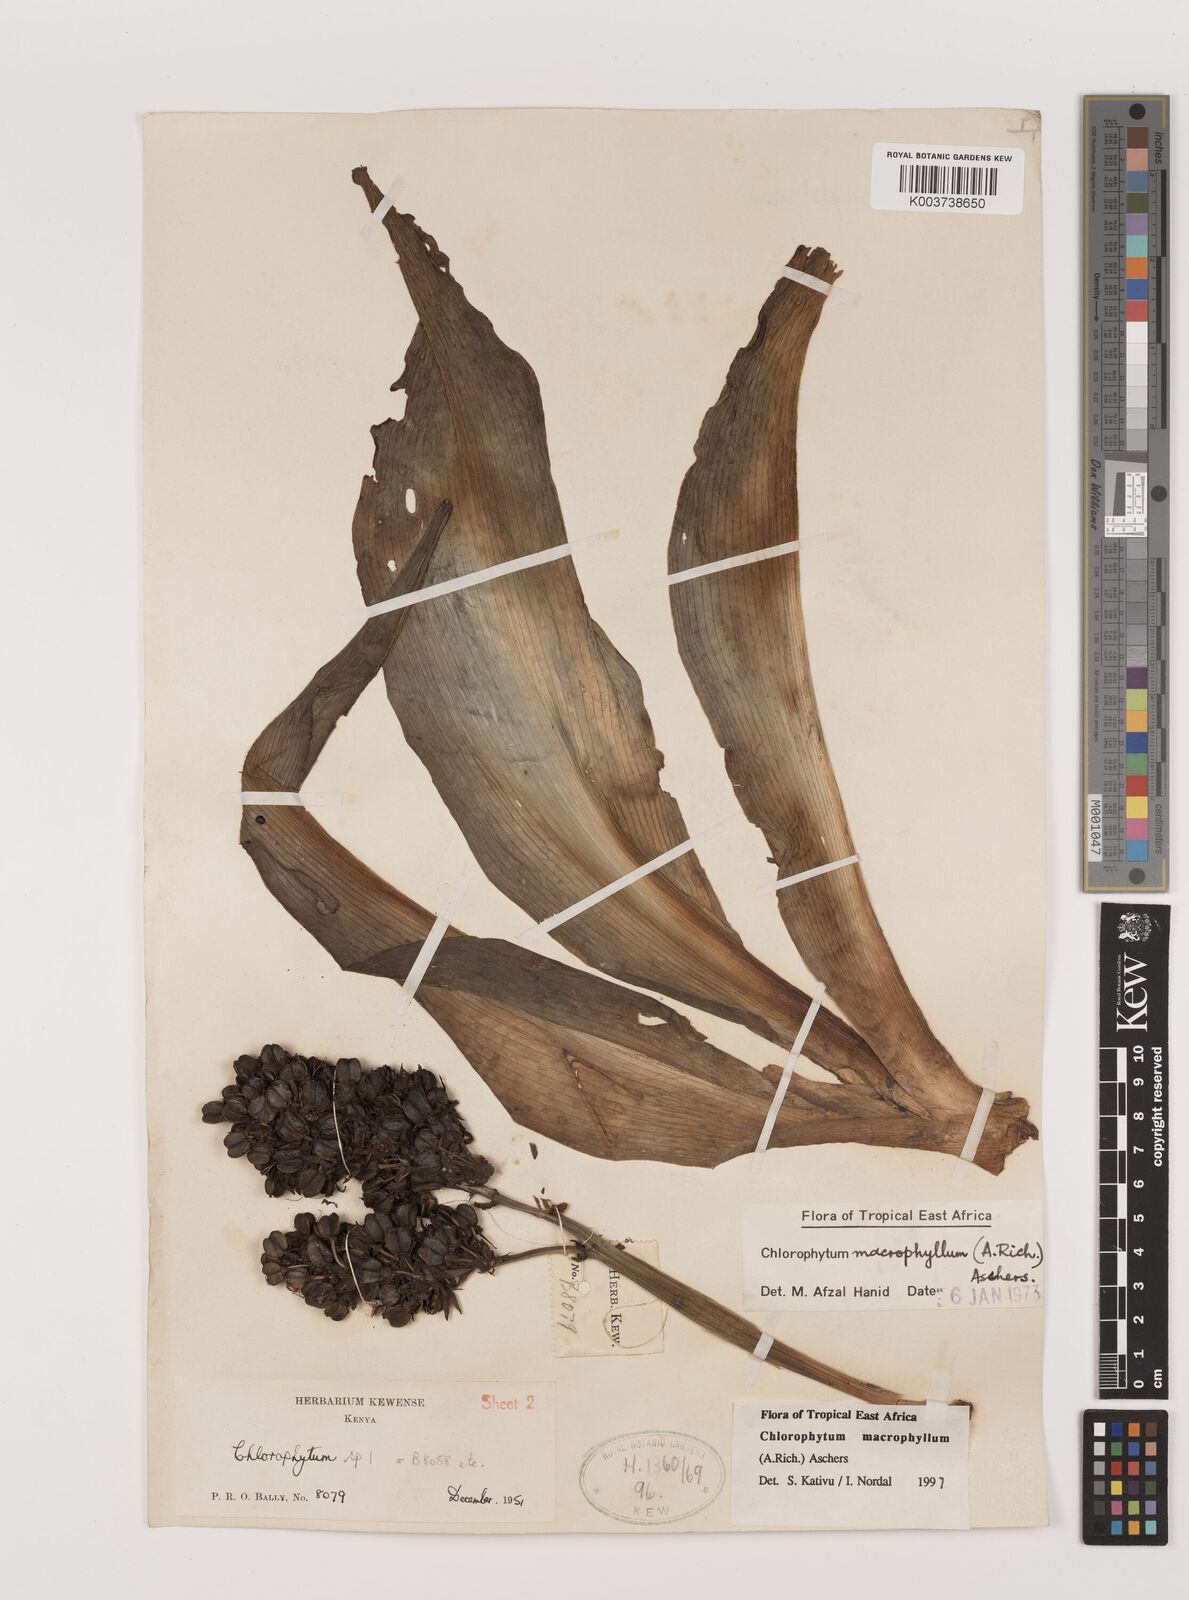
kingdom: Plantae
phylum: Tracheophyta
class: Liliopsida
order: Asparagales
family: Asparagaceae
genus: Chlorophytum
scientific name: Chlorophytum macrophyllum
